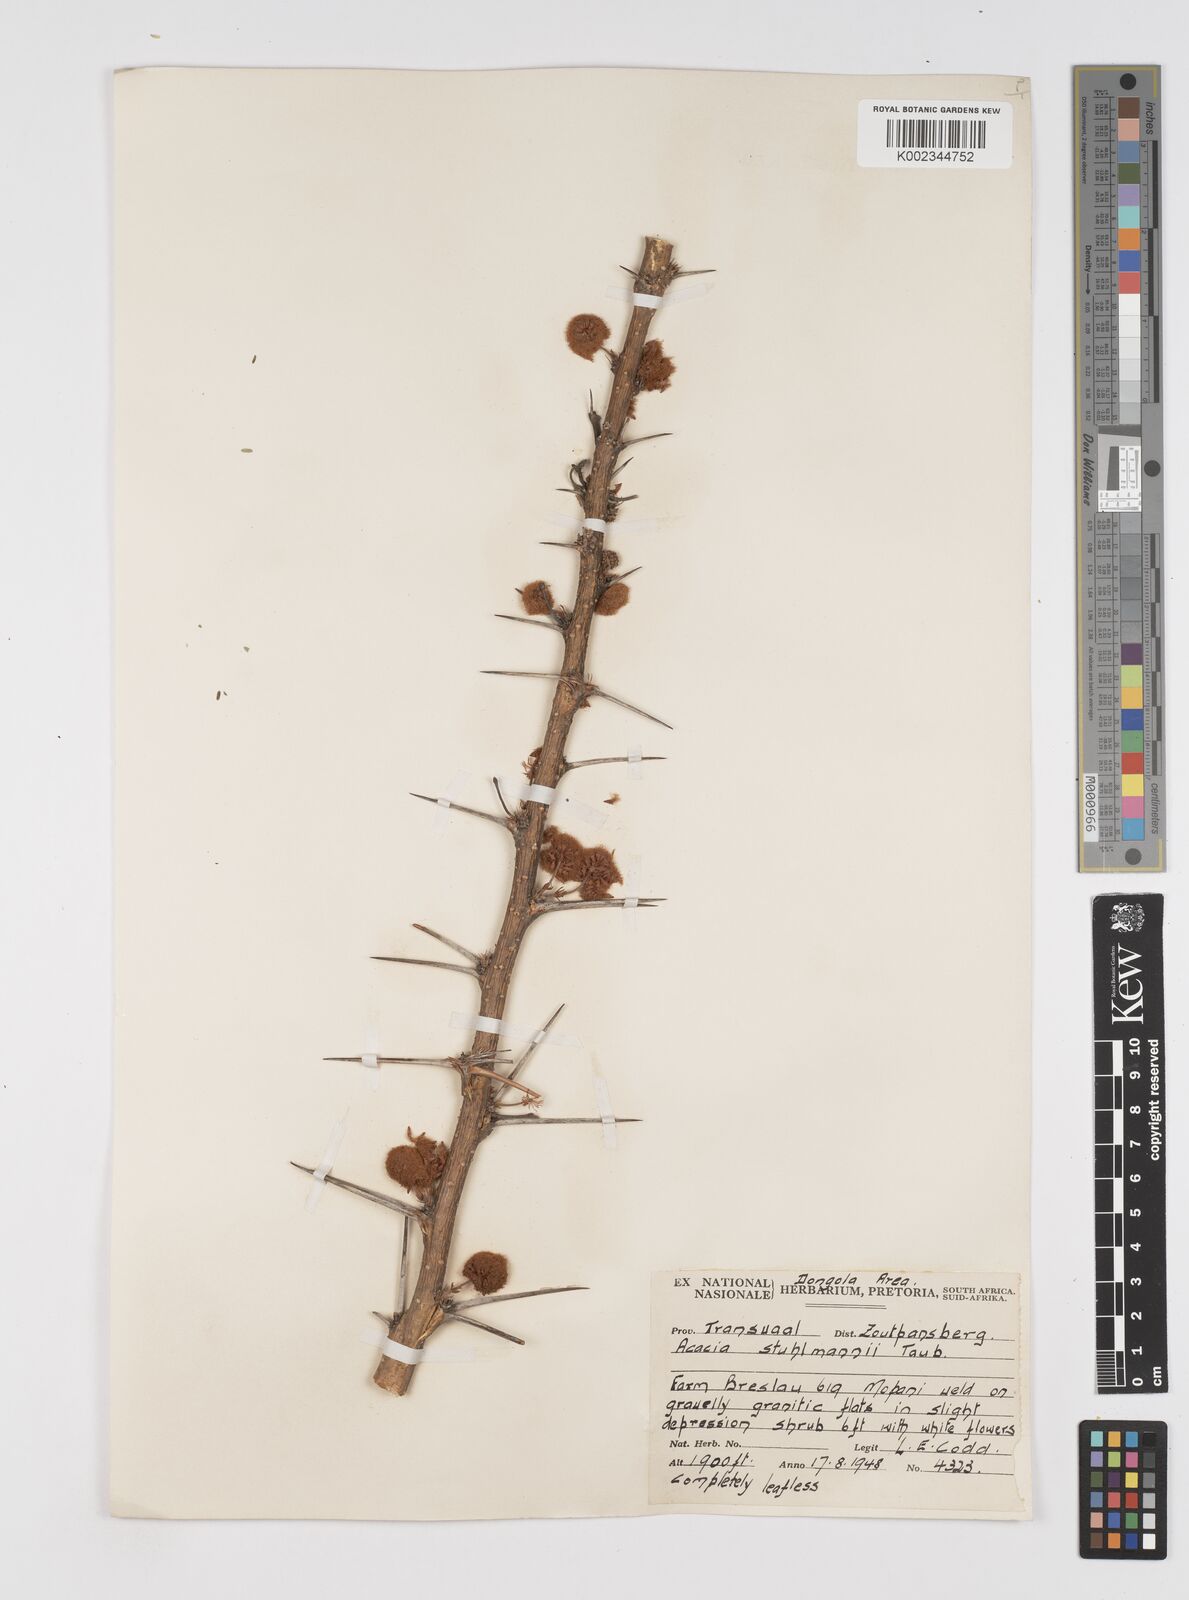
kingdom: Plantae
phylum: Tracheophyta
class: Magnoliopsida
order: Fabales
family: Fabaceae
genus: Vachellia
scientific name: Vachellia stuhlmannii
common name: Vlei thorn
